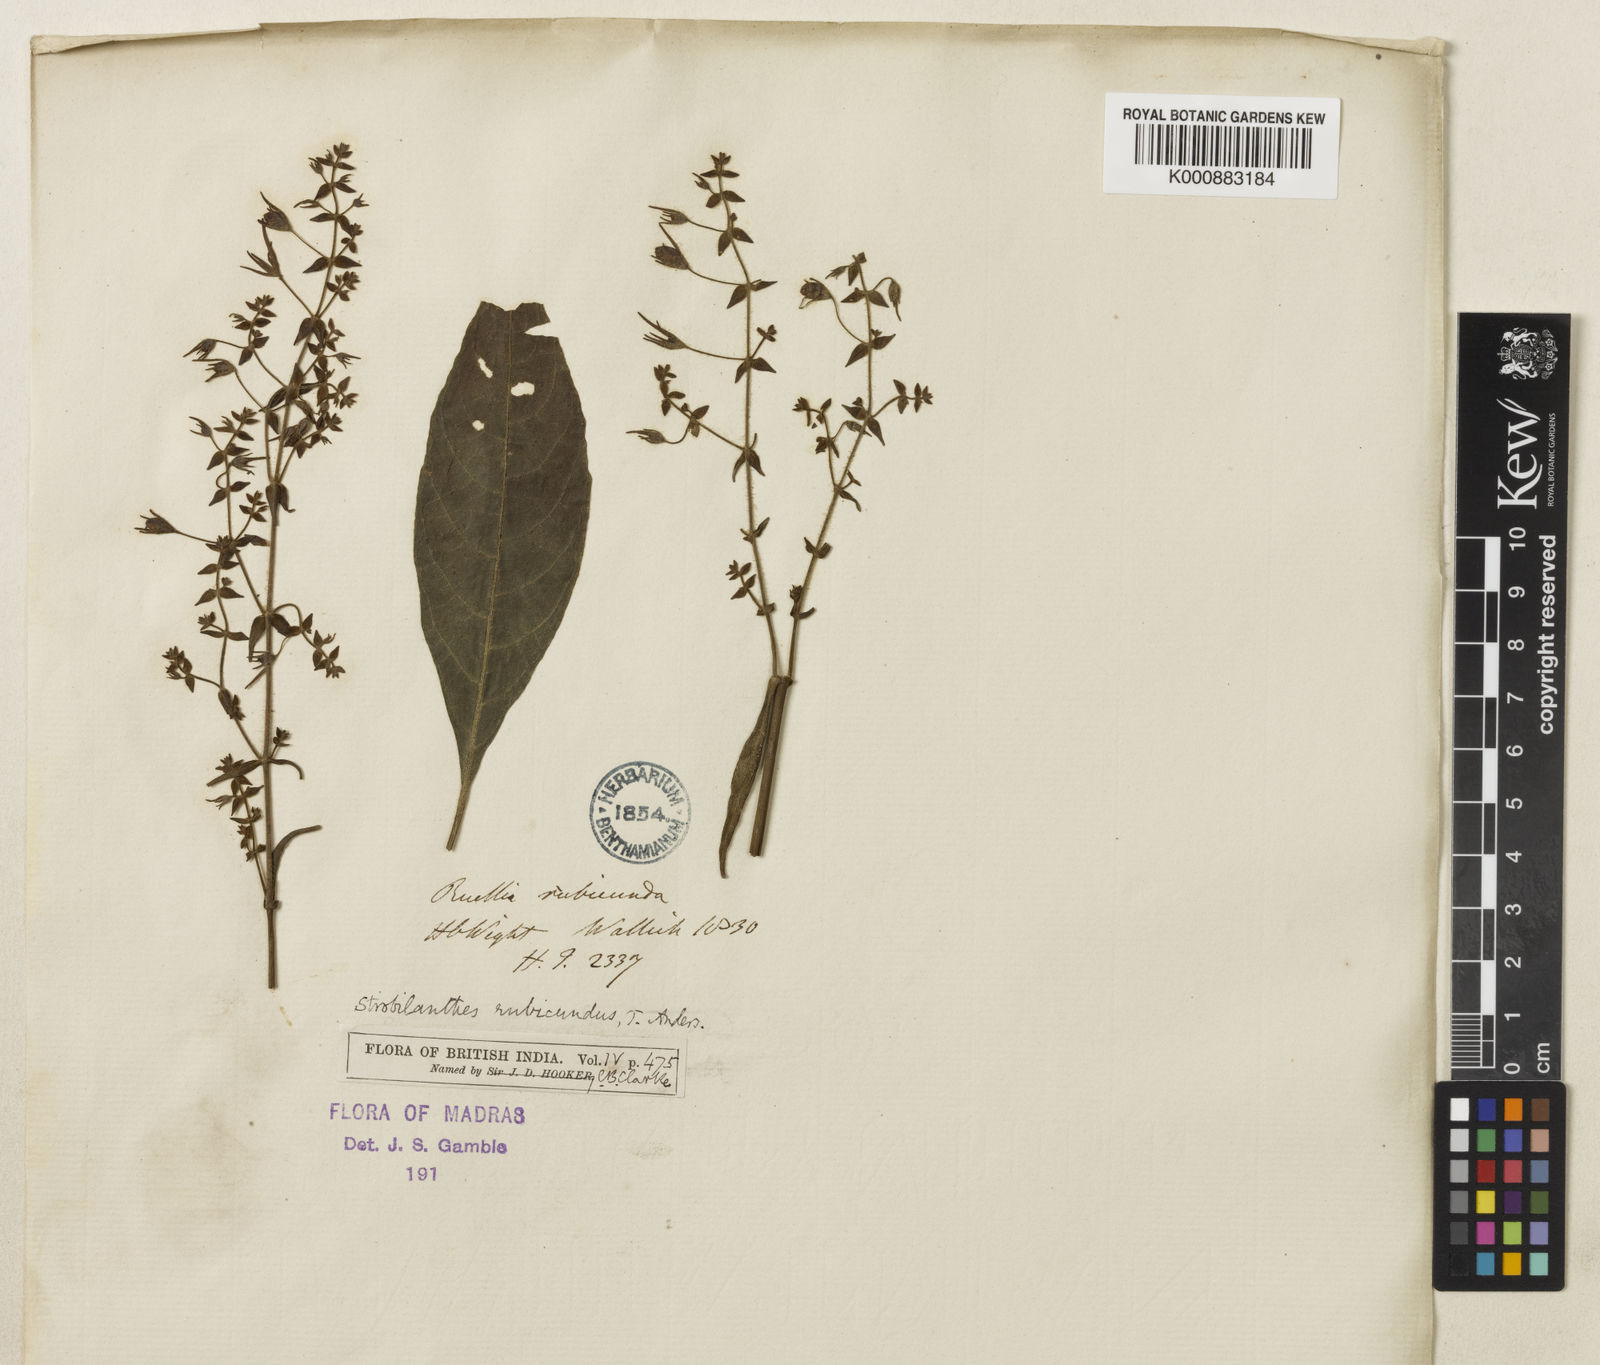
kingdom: Plantae
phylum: Tracheophyta
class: Magnoliopsida
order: Lamiales
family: Acanthaceae
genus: Strobilanthes
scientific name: Strobilanthes rubicunda
